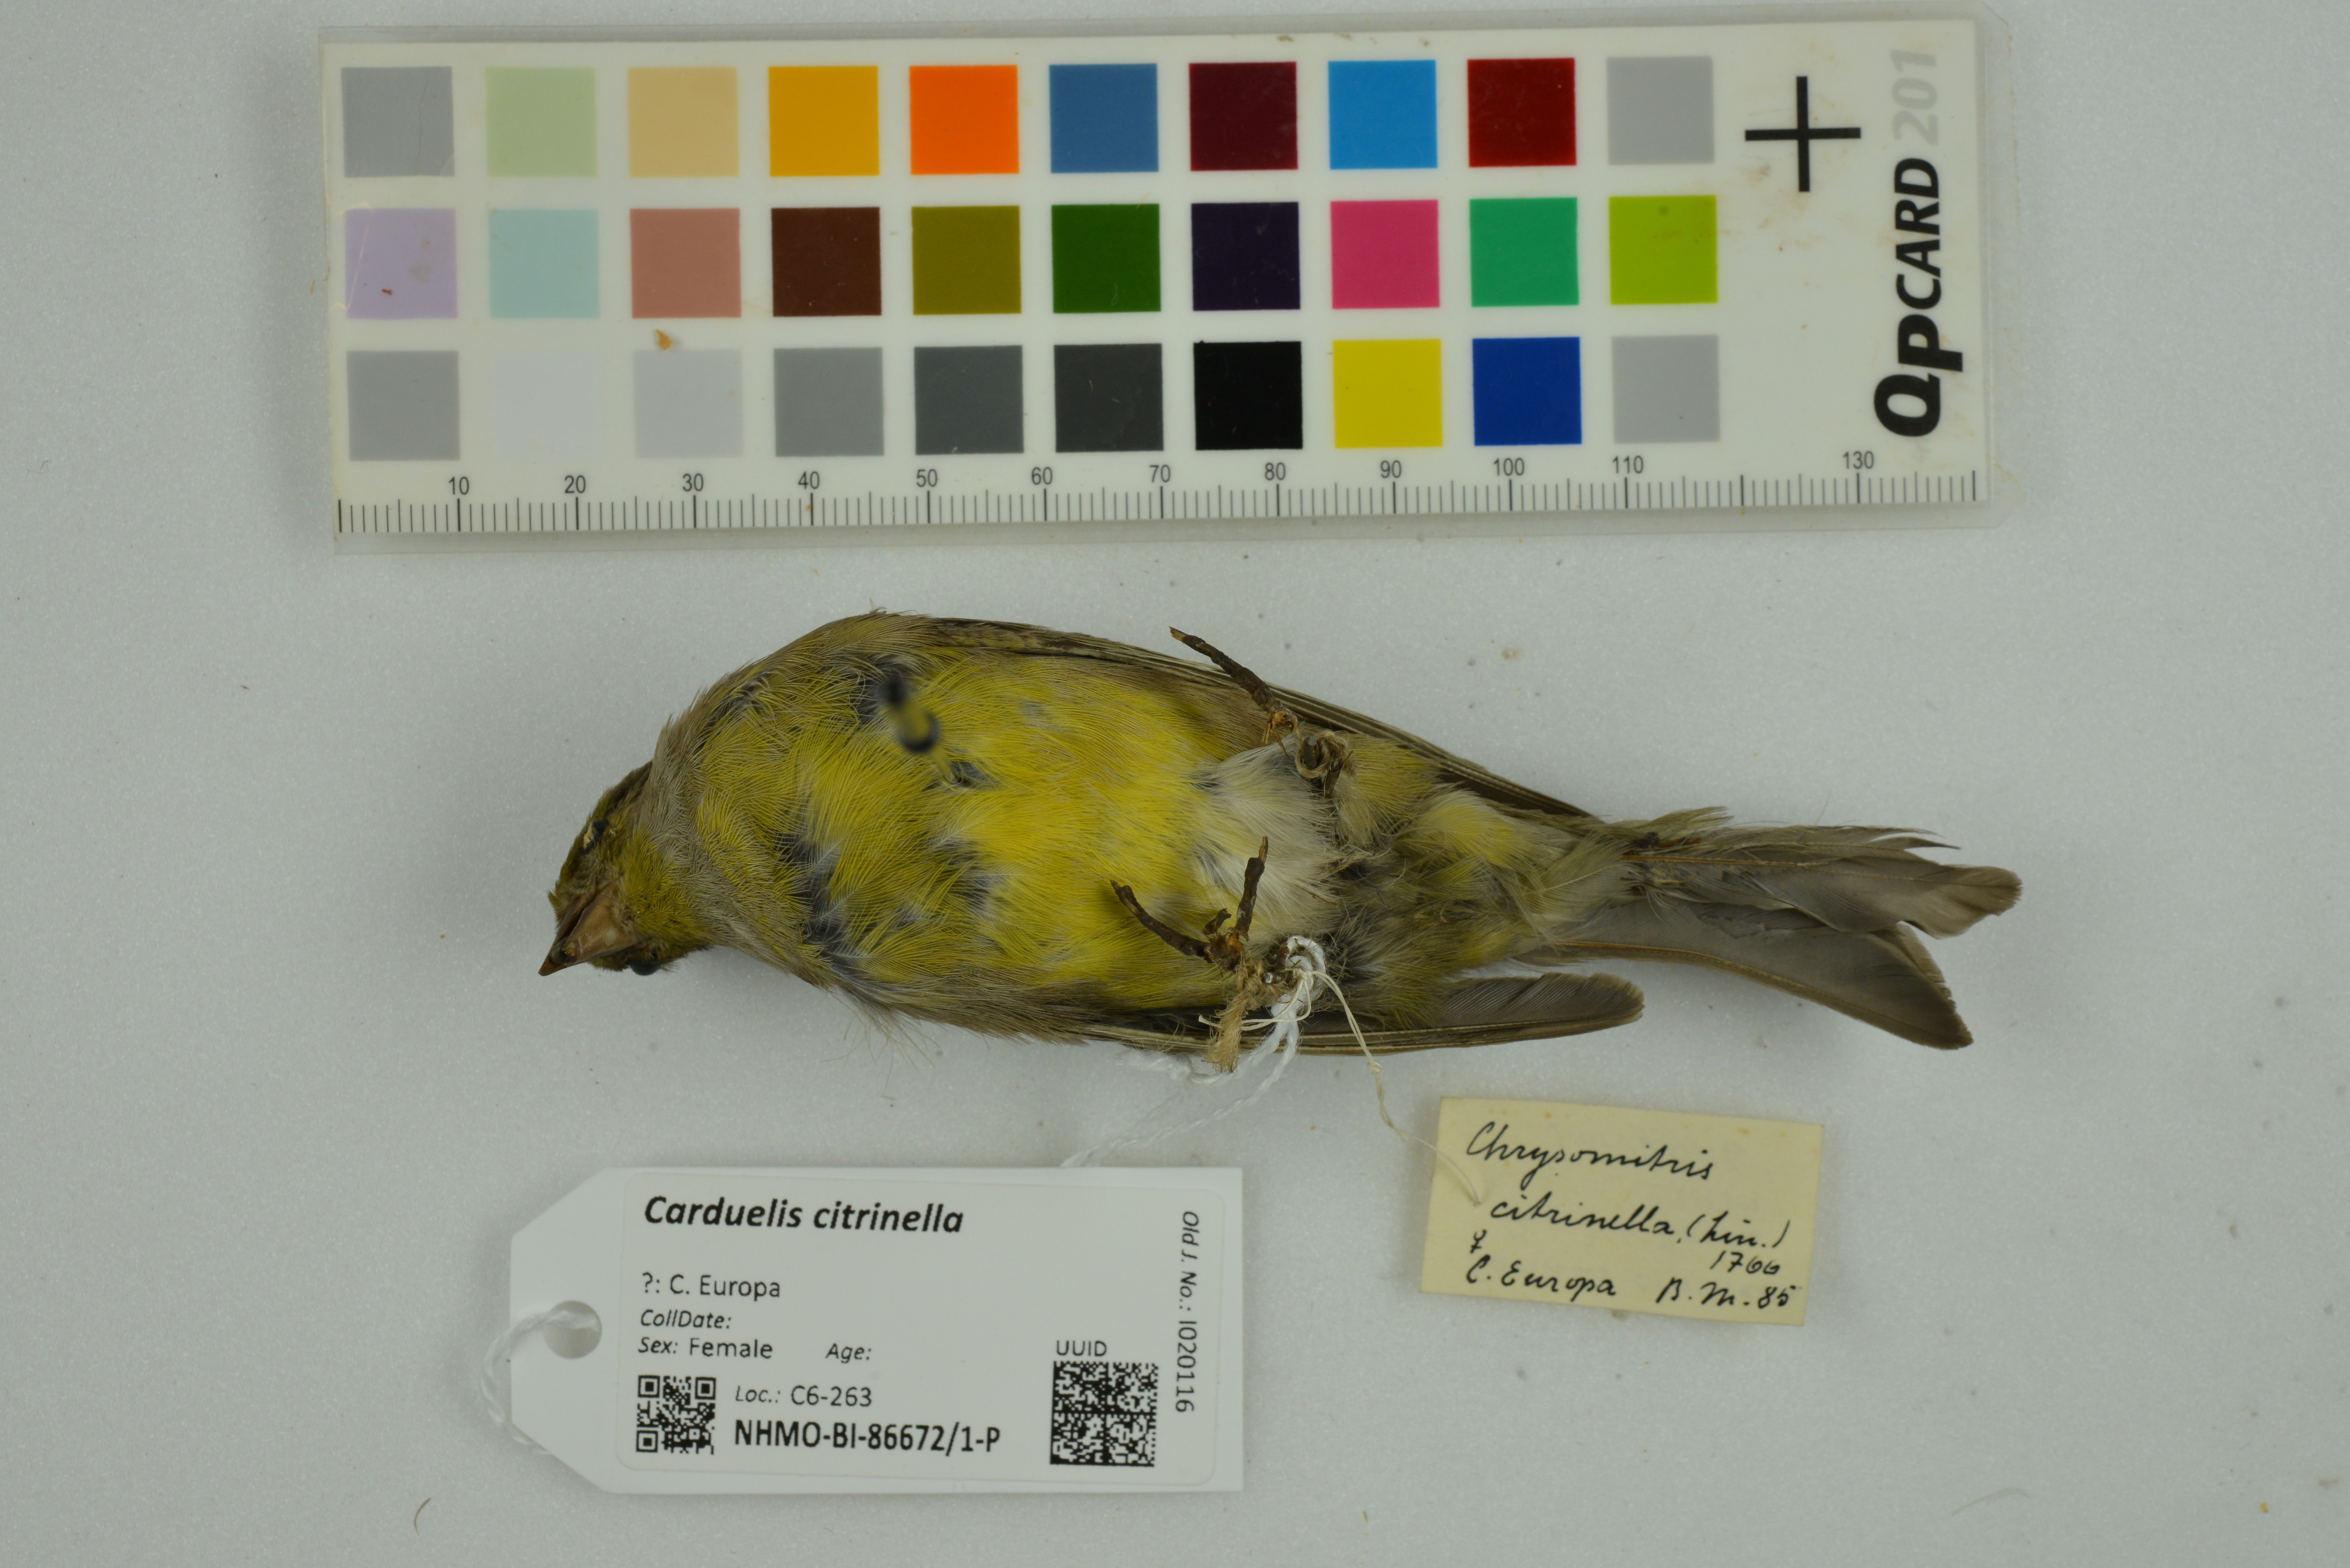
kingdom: Animalia
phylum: Chordata
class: Aves
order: Passeriformes
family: Fringillidae
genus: Carduelis
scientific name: Carduelis citrinella
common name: Citril finch
